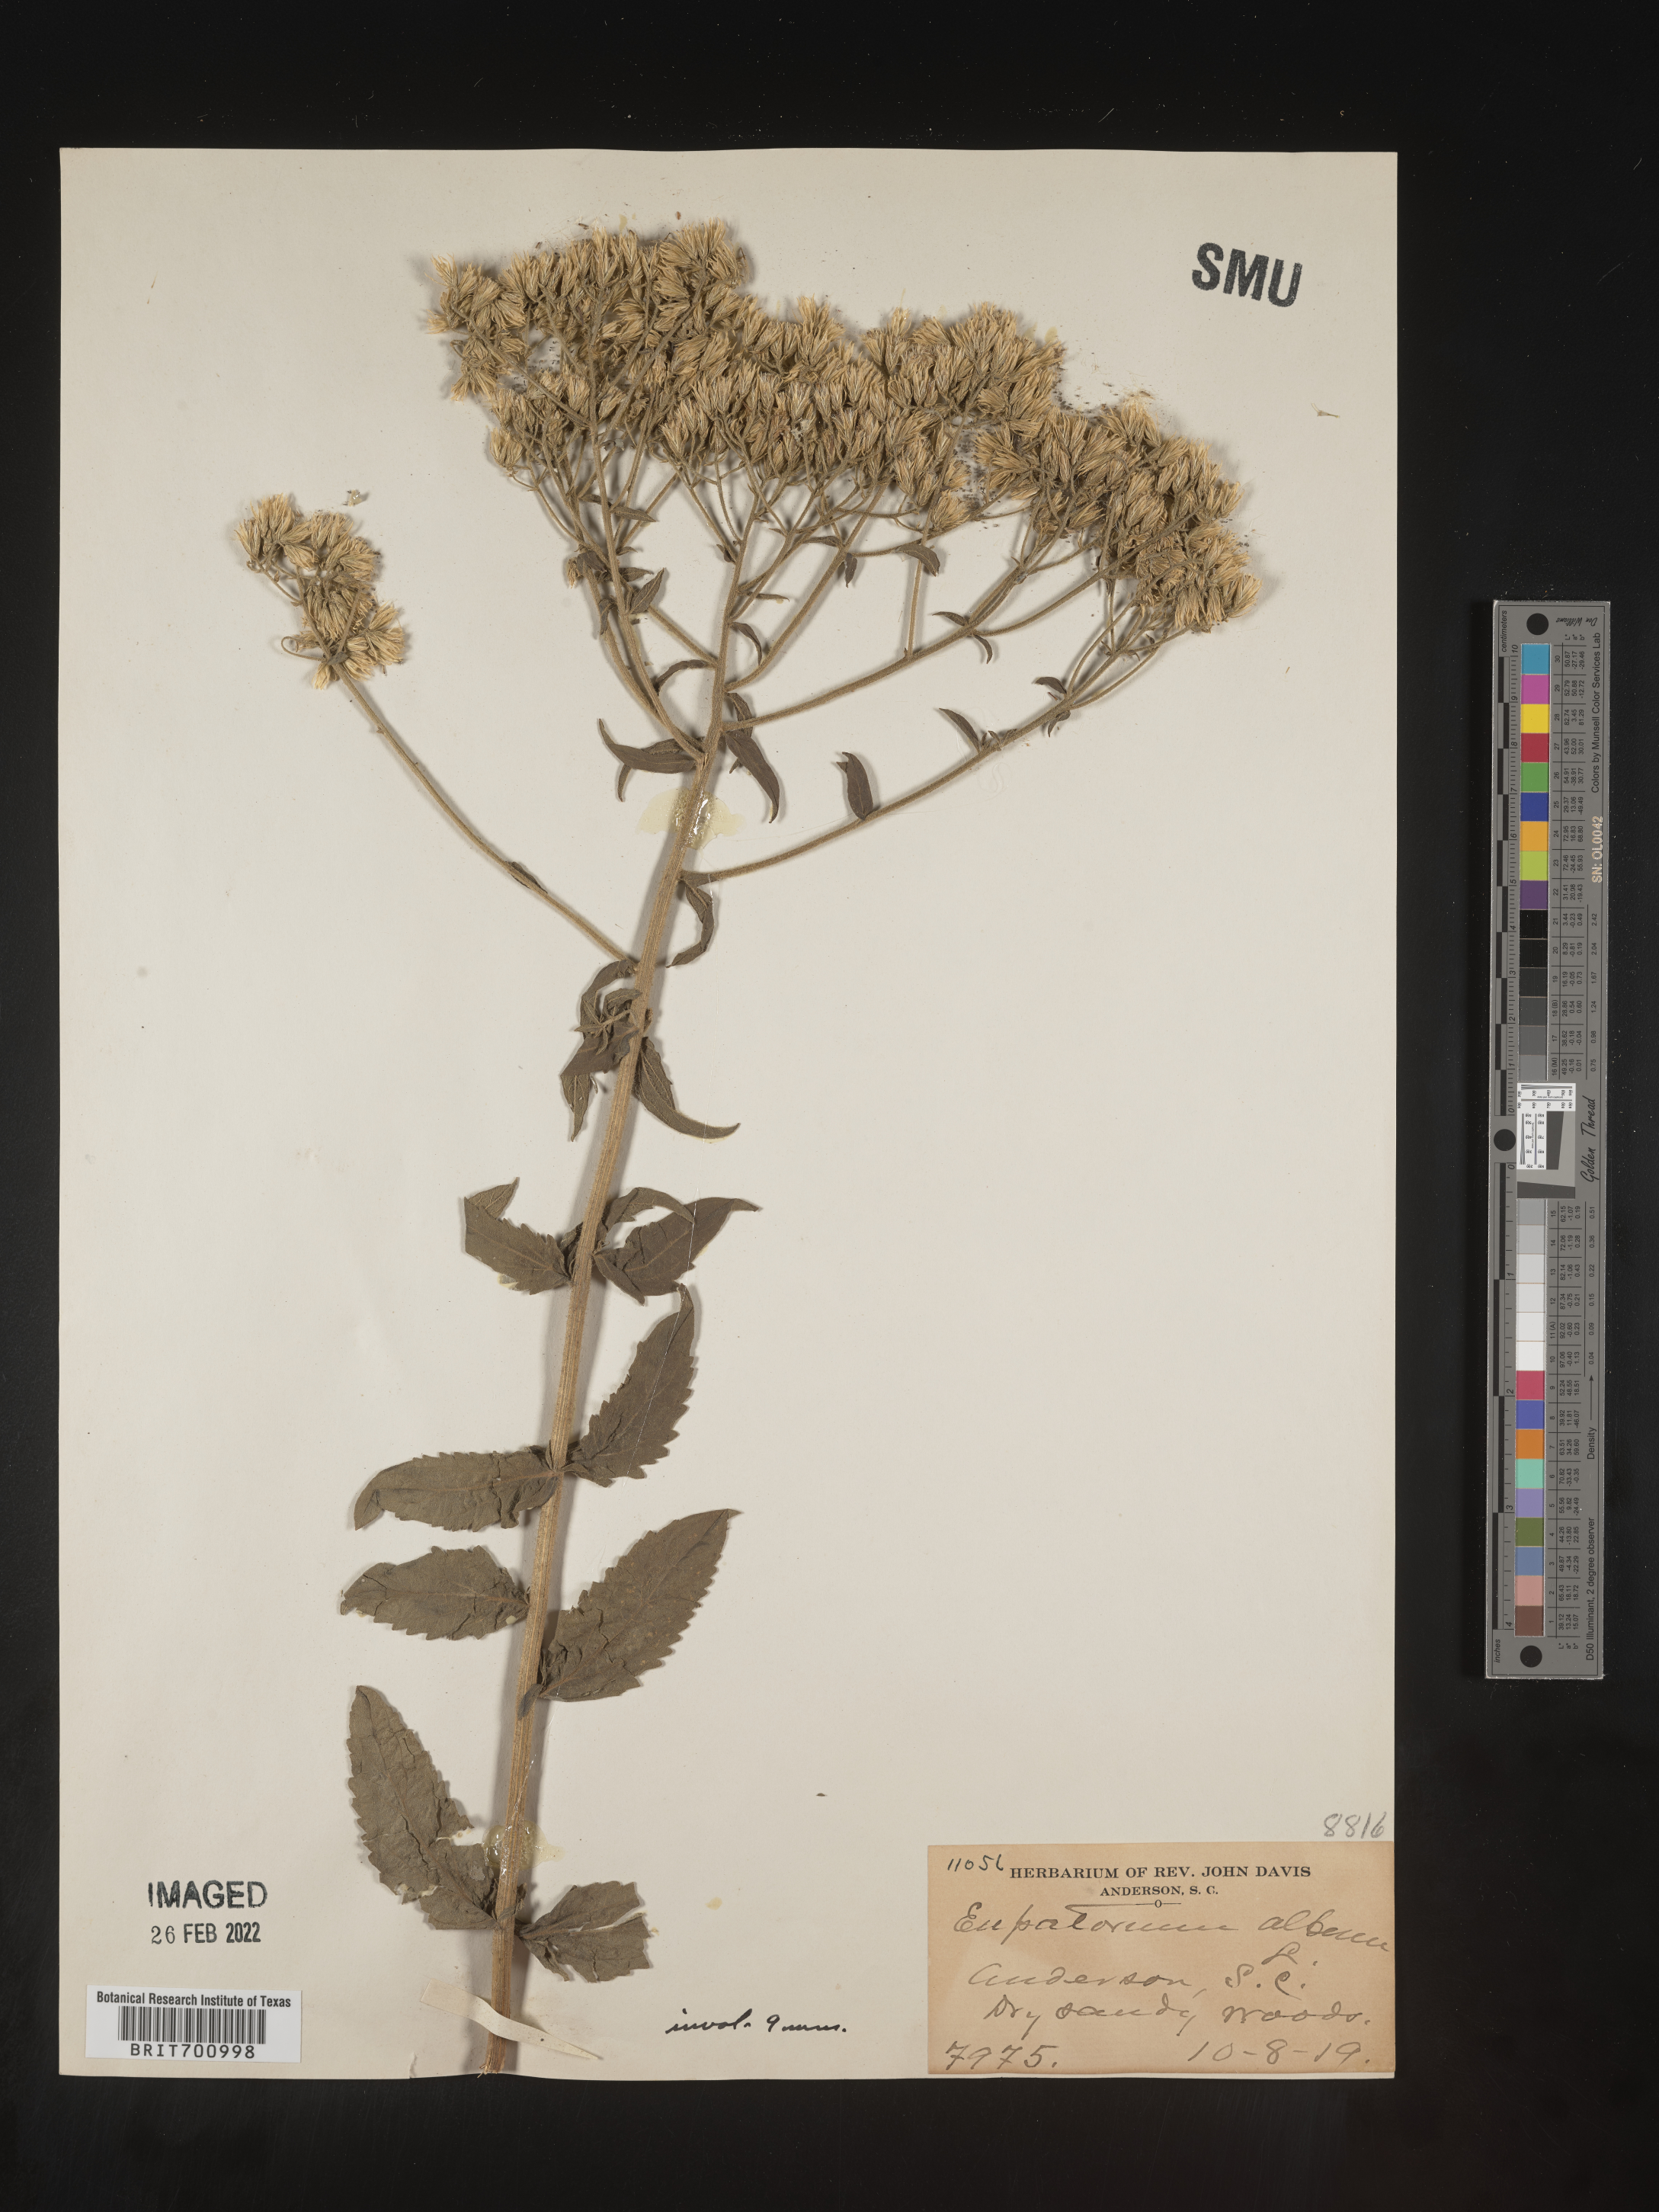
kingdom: Plantae
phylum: Tracheophyta
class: Magnoliopsida
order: Asterales
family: Asteraceae
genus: Eupatorium
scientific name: Eupatorium album
